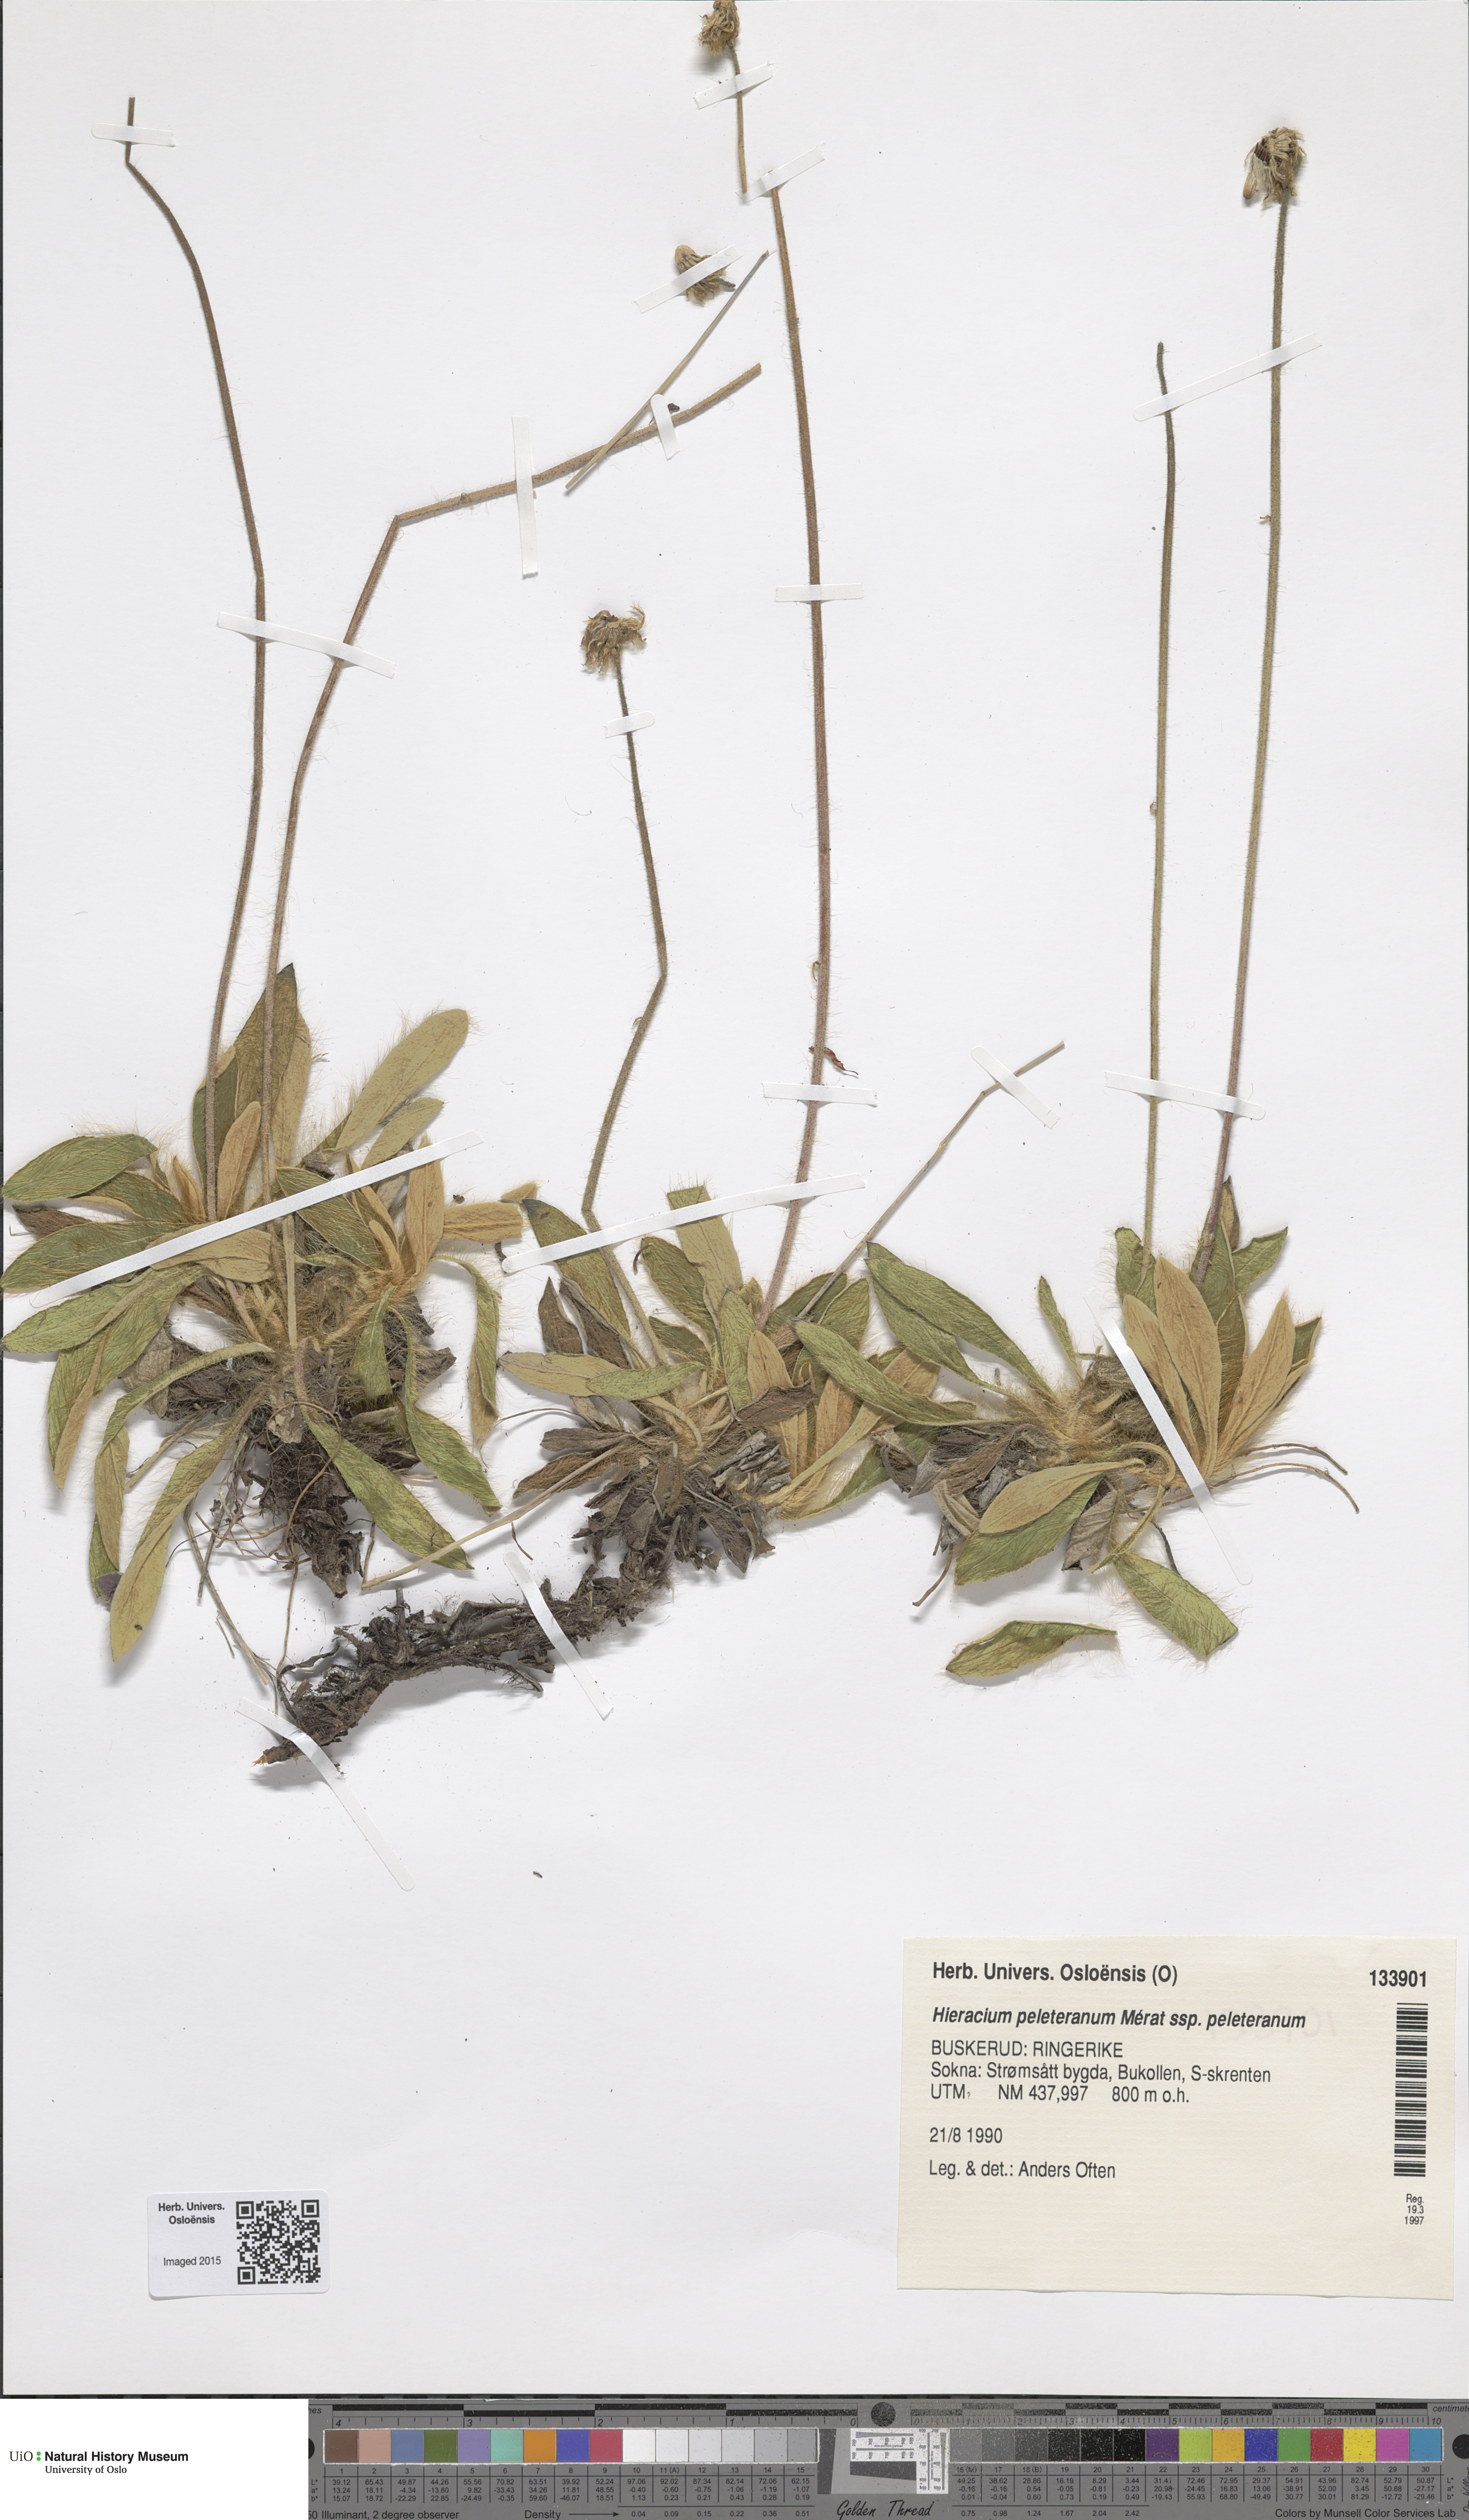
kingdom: Plantae
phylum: Tracheophyta
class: Magnoliopsida
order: Asterales
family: Asteraceae
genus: Pilosella
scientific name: Pilosella peleteriana
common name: Shaggy mouse-ear-hawkweed
